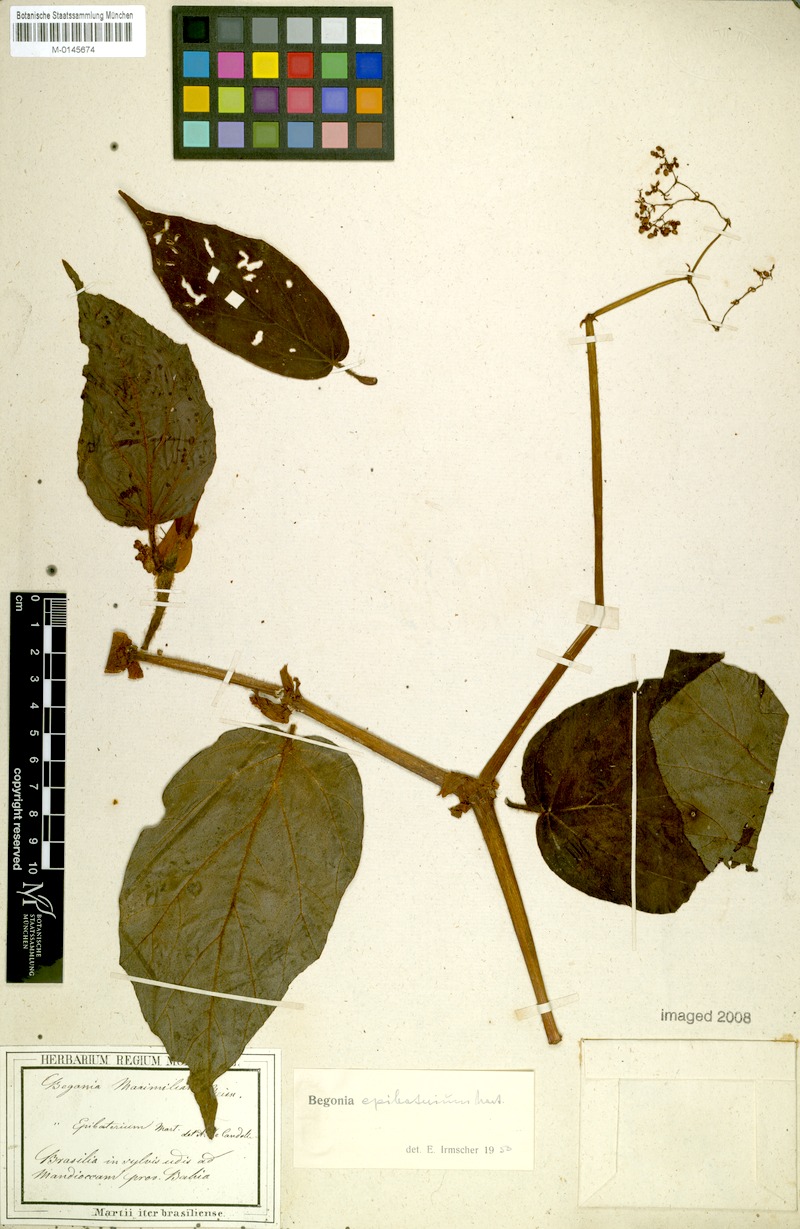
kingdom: Plantae
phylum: Tracheophyta
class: Magnoliopsida
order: Cucurbitales
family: Begoniaceae
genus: Begonia
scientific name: Begonia epibaterium
